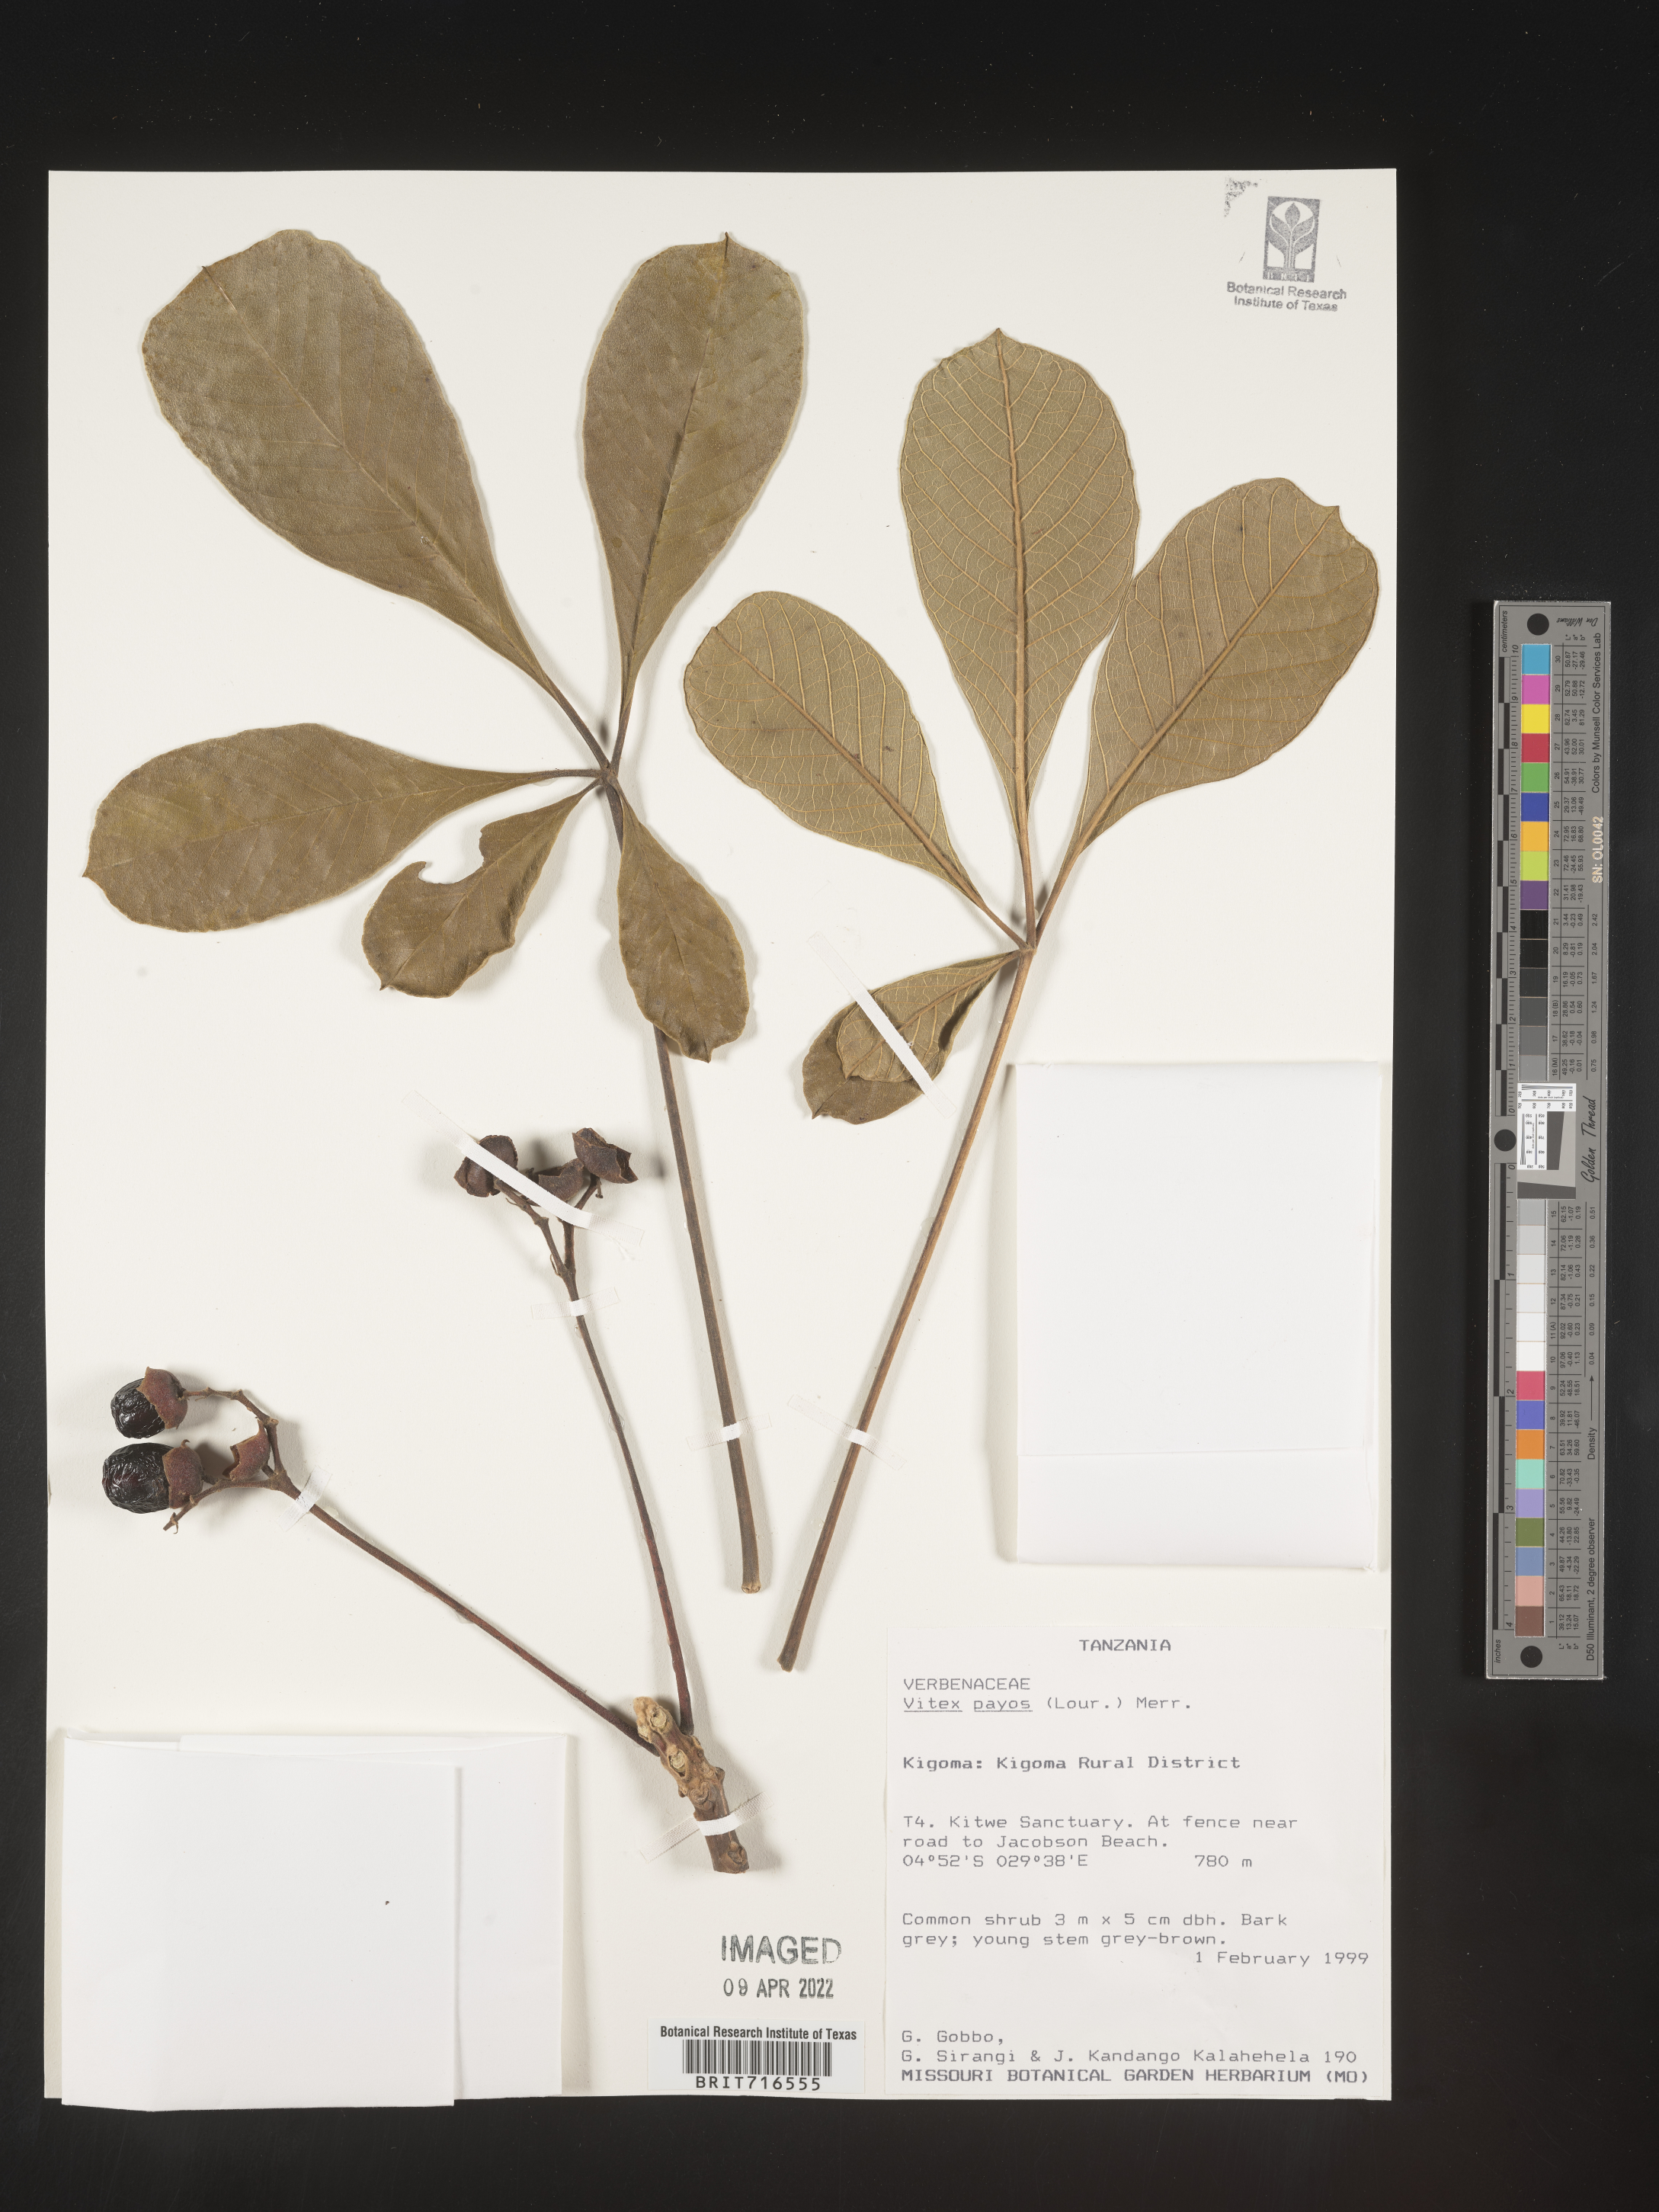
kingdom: Plantae
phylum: Tracheophyta
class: Magnoliopsida
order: Lamiales
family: Lamiaceae
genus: Vitex
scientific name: Vitex
